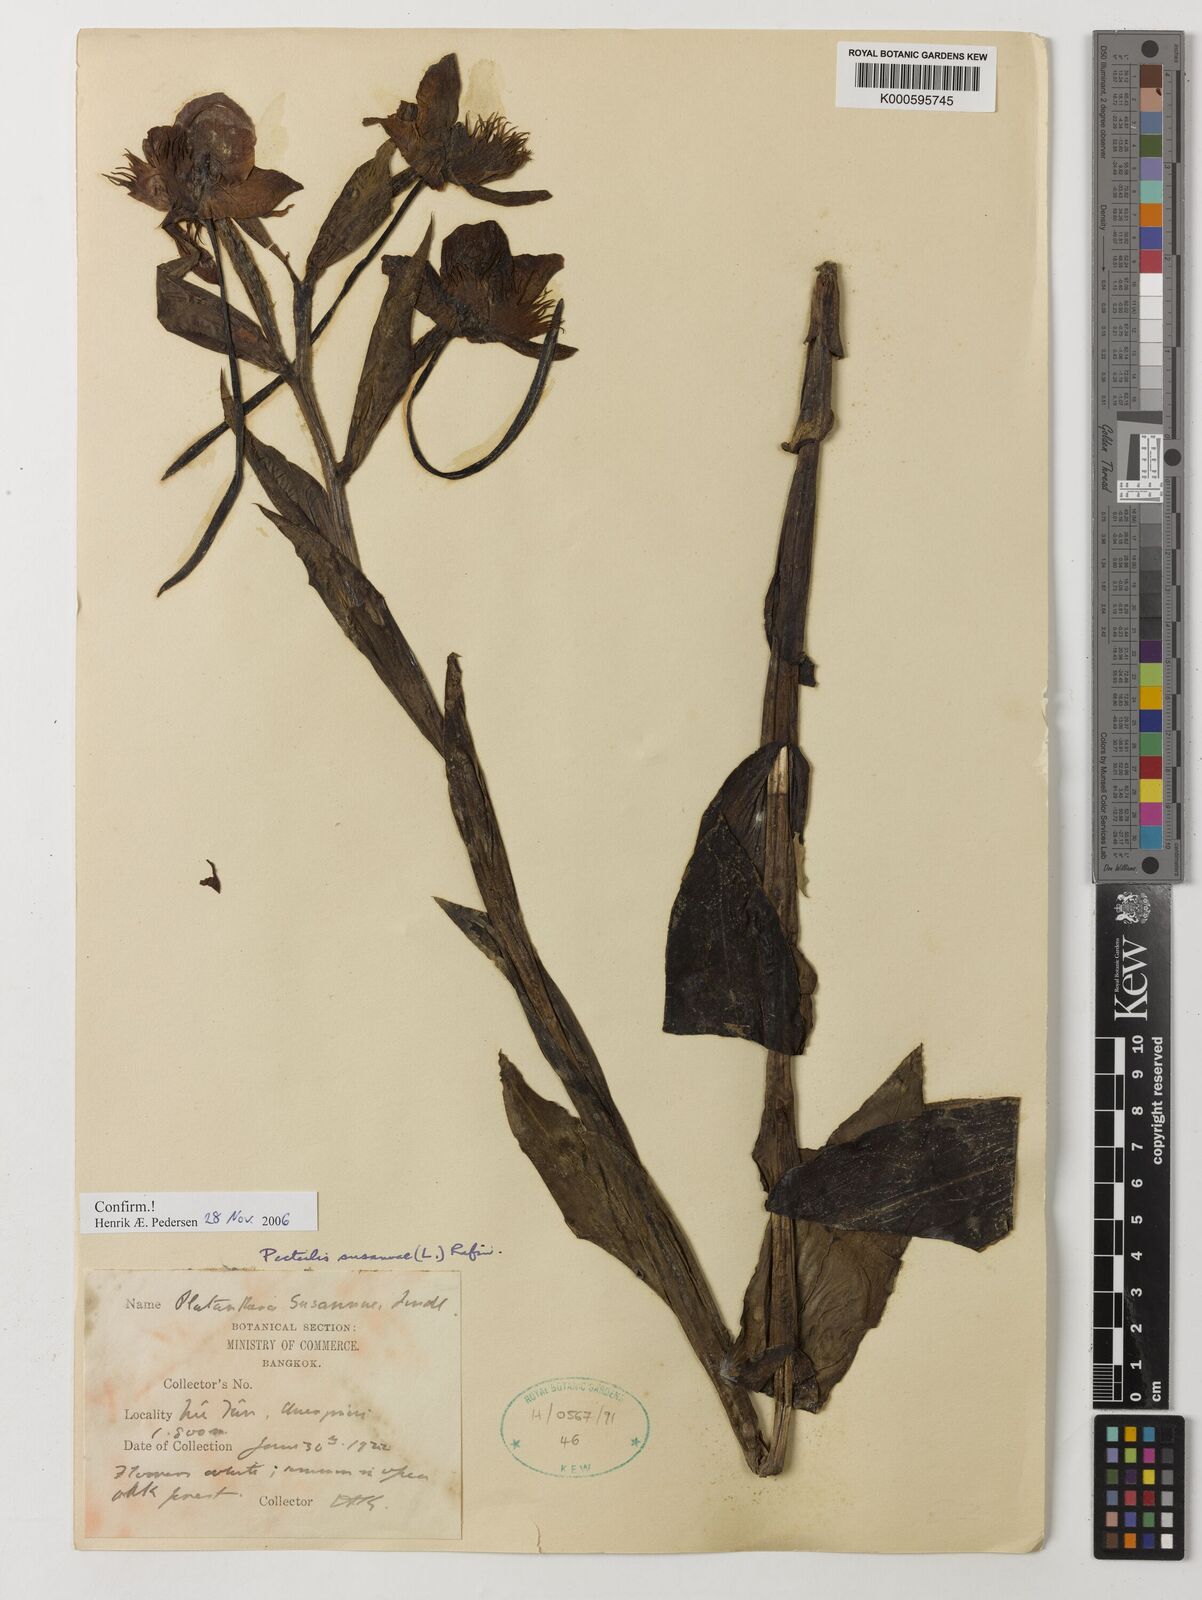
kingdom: Plantae
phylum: Tracheophyta
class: Liliopsida
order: Asparagales
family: Orchidaceae
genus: Pecteilis
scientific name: Pecteilis susannae
